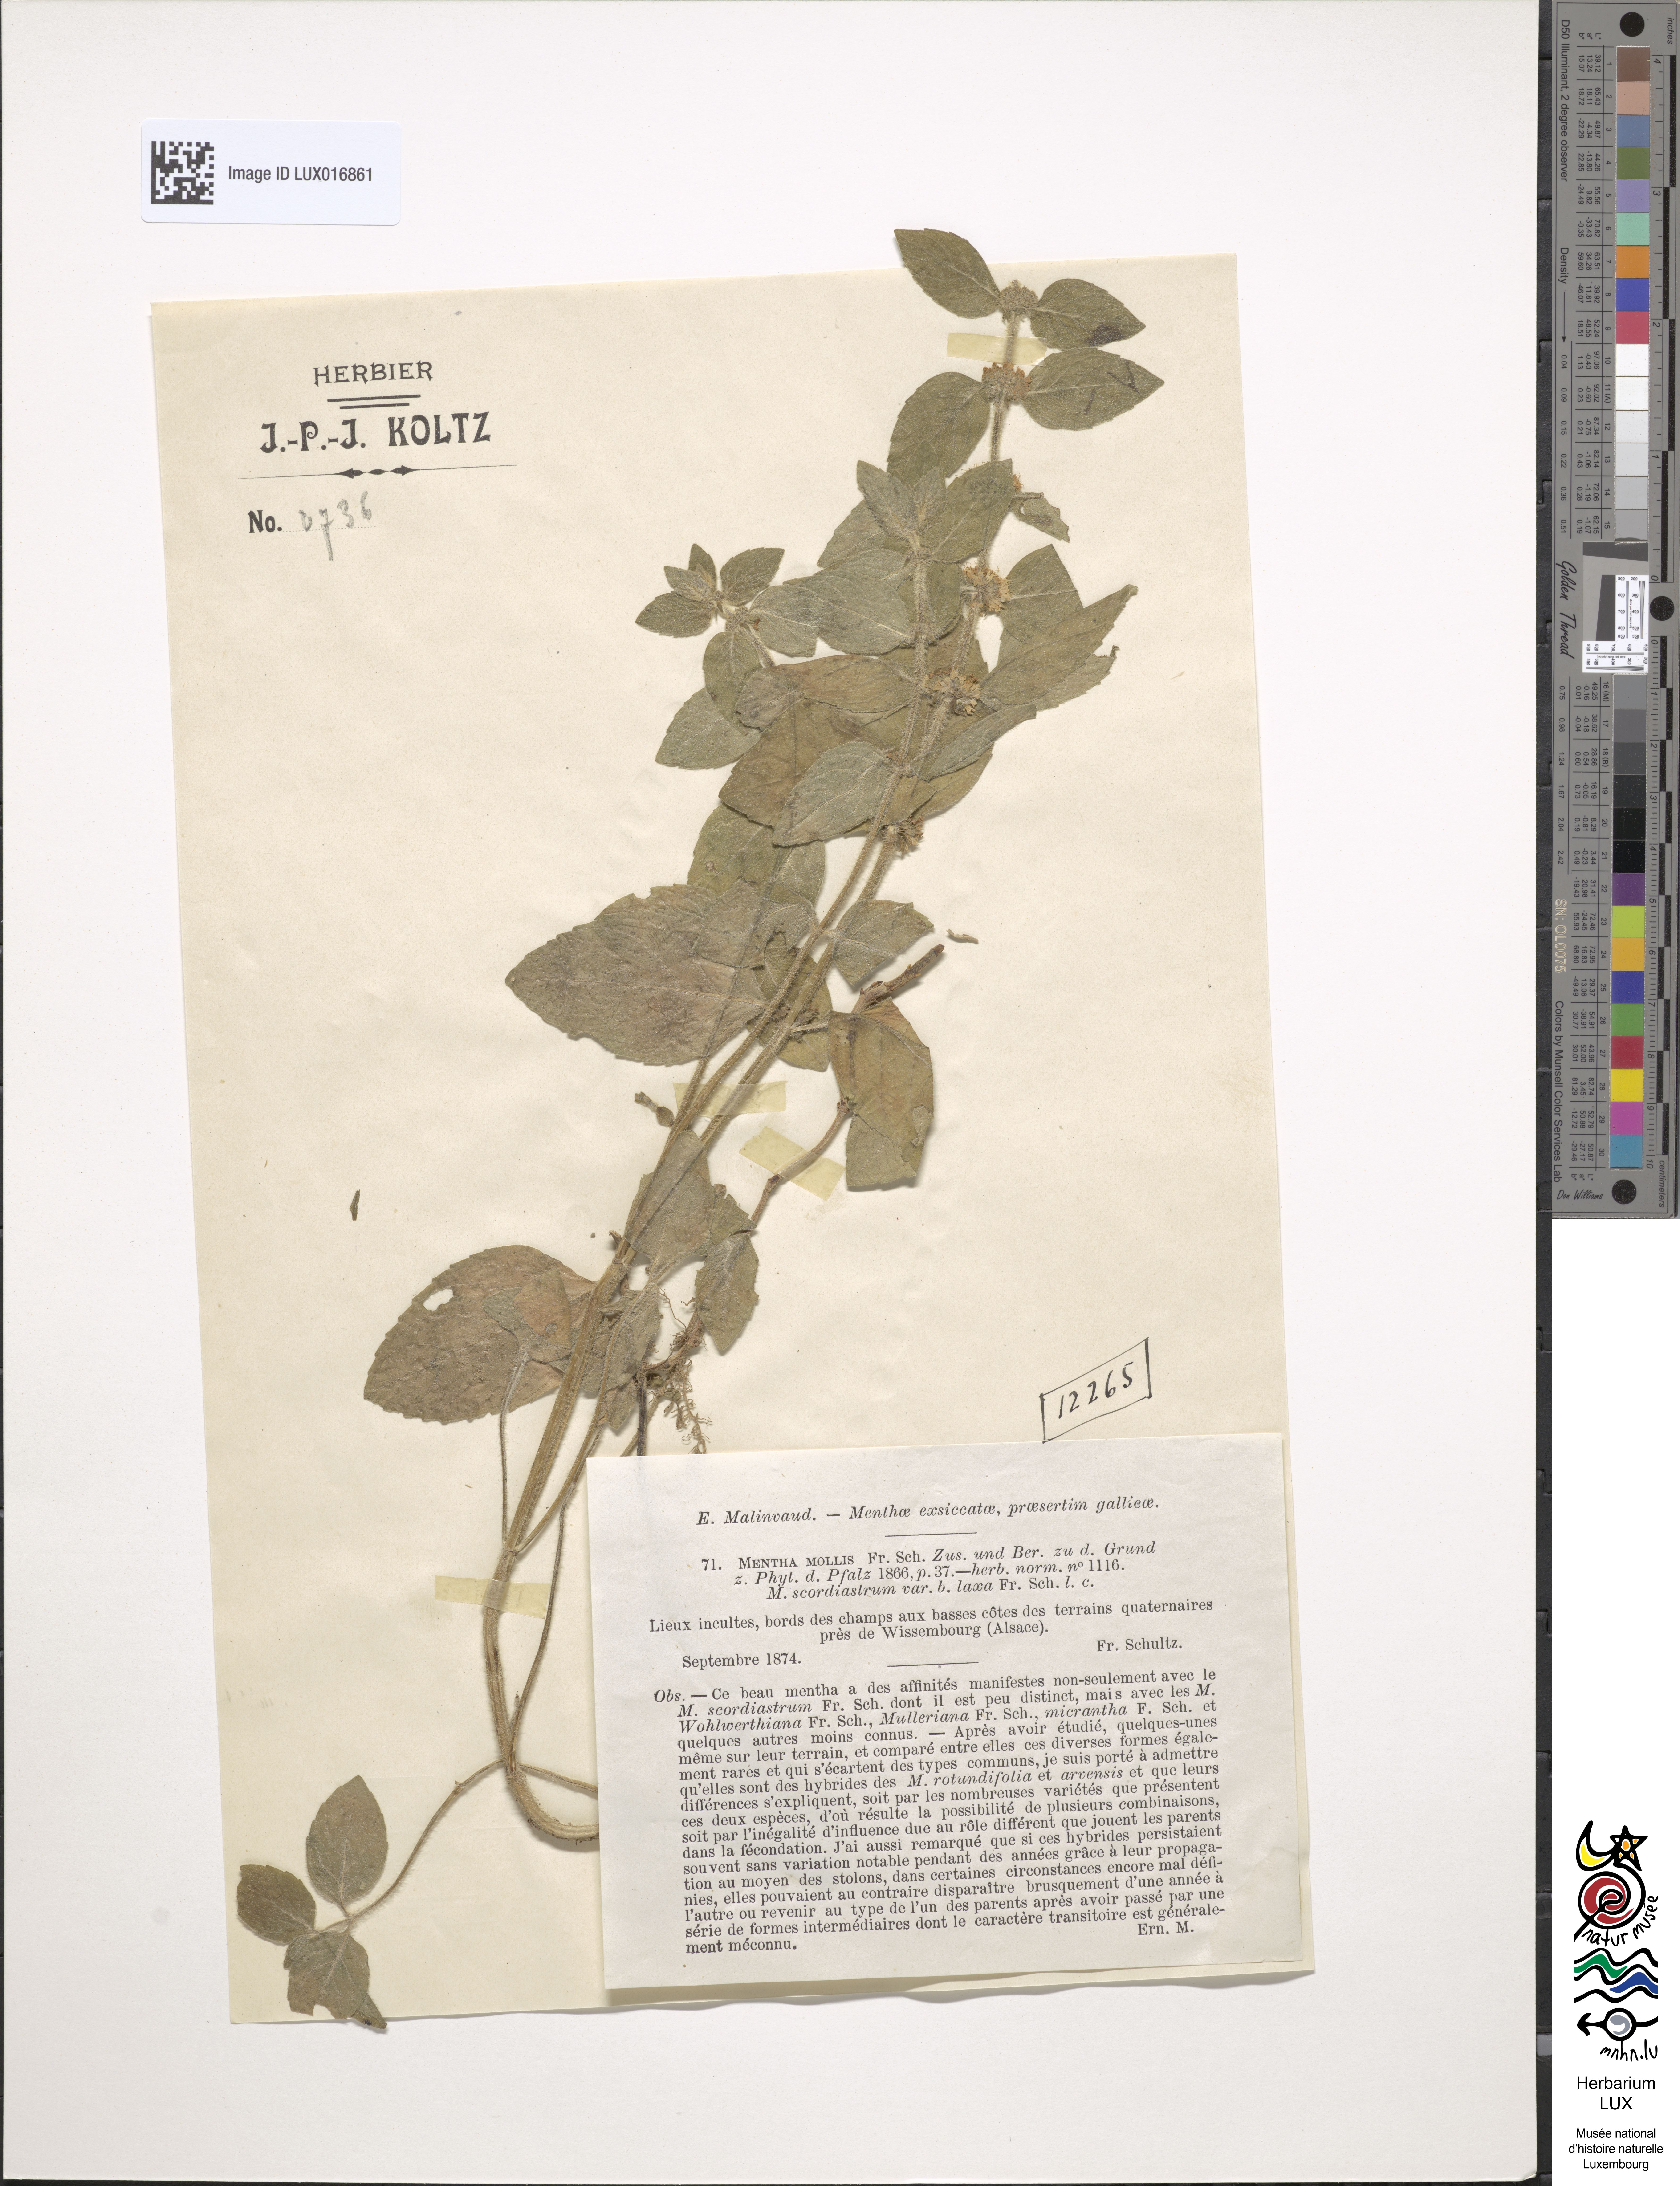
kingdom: Plantae
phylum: Tracheophyta
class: Magnoliopsida
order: Lamiales
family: Lamiaceae
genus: Minthostachys
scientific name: Minthostachys mollis
